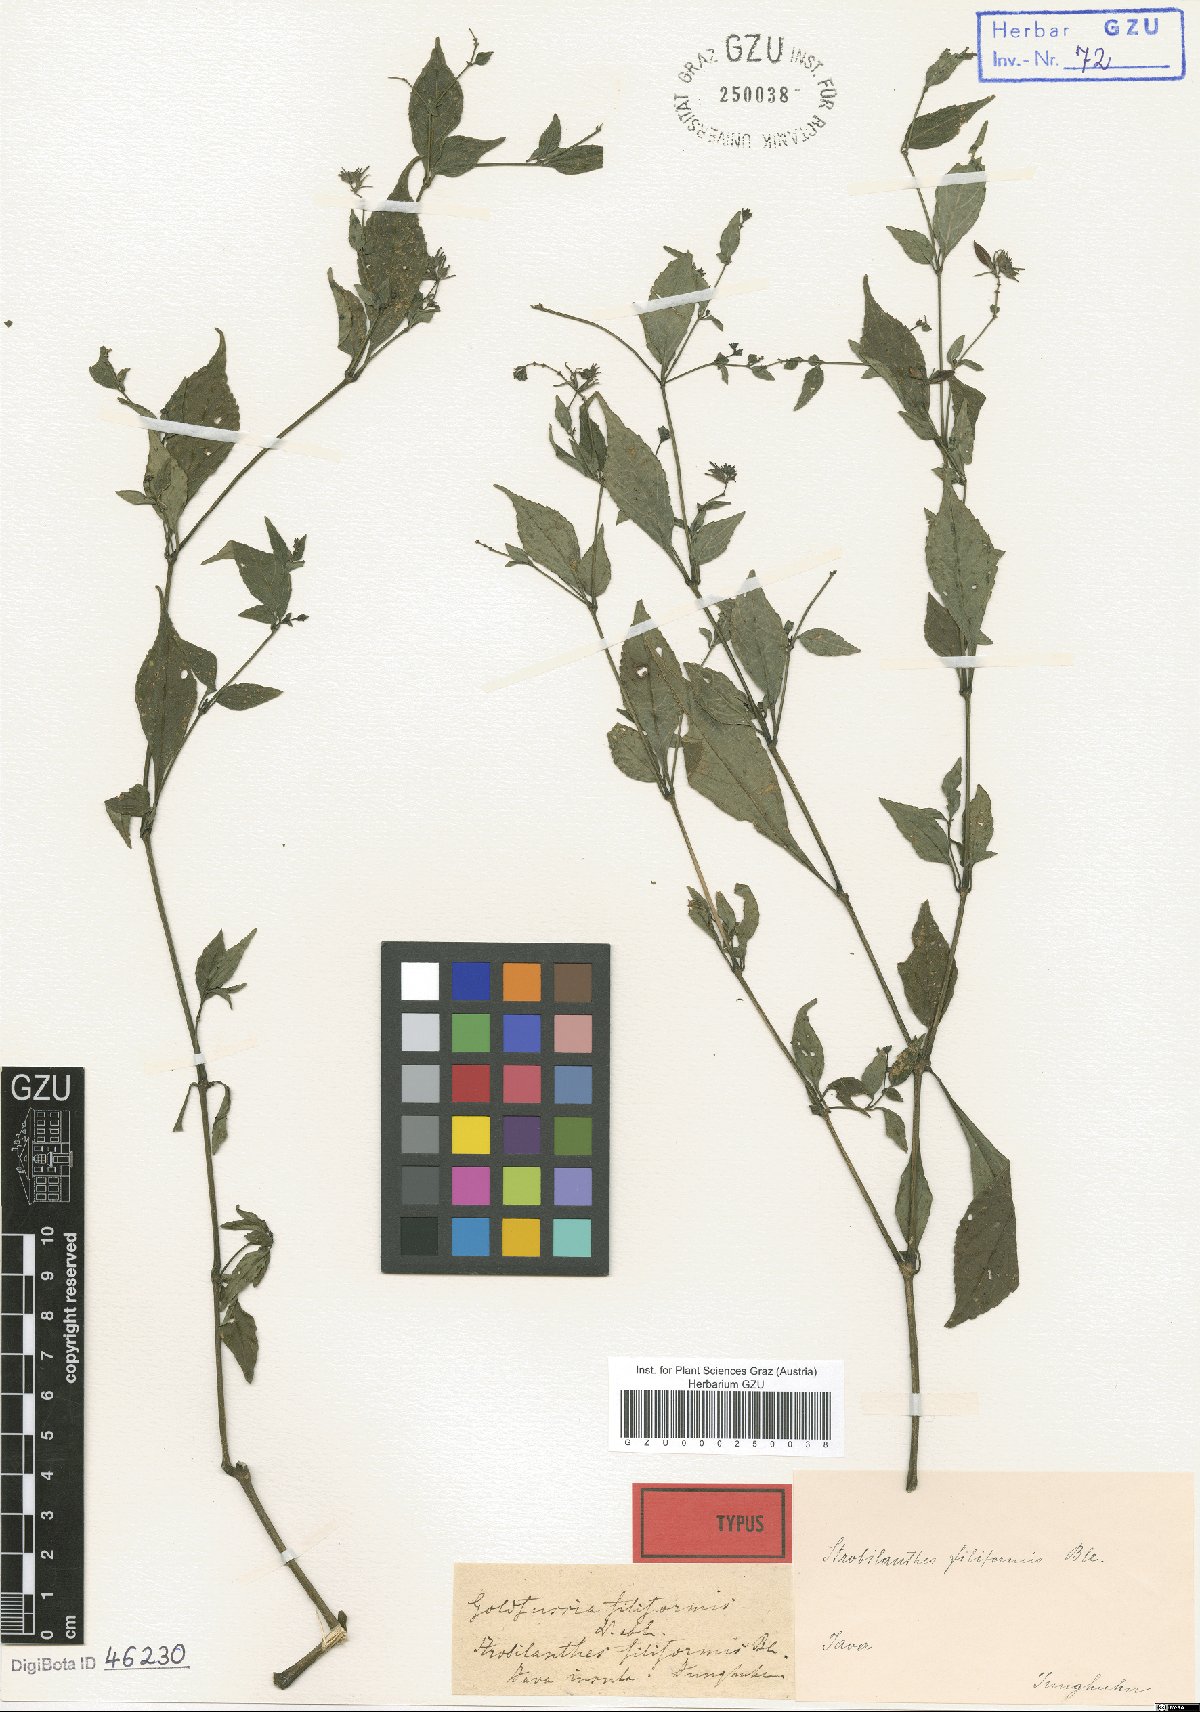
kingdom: Plantae
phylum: Tracheophyta
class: Magnoliopsida
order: Lamiales
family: Acanthaceae
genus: Strobilanthes
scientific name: Strobilanthes filiformis
